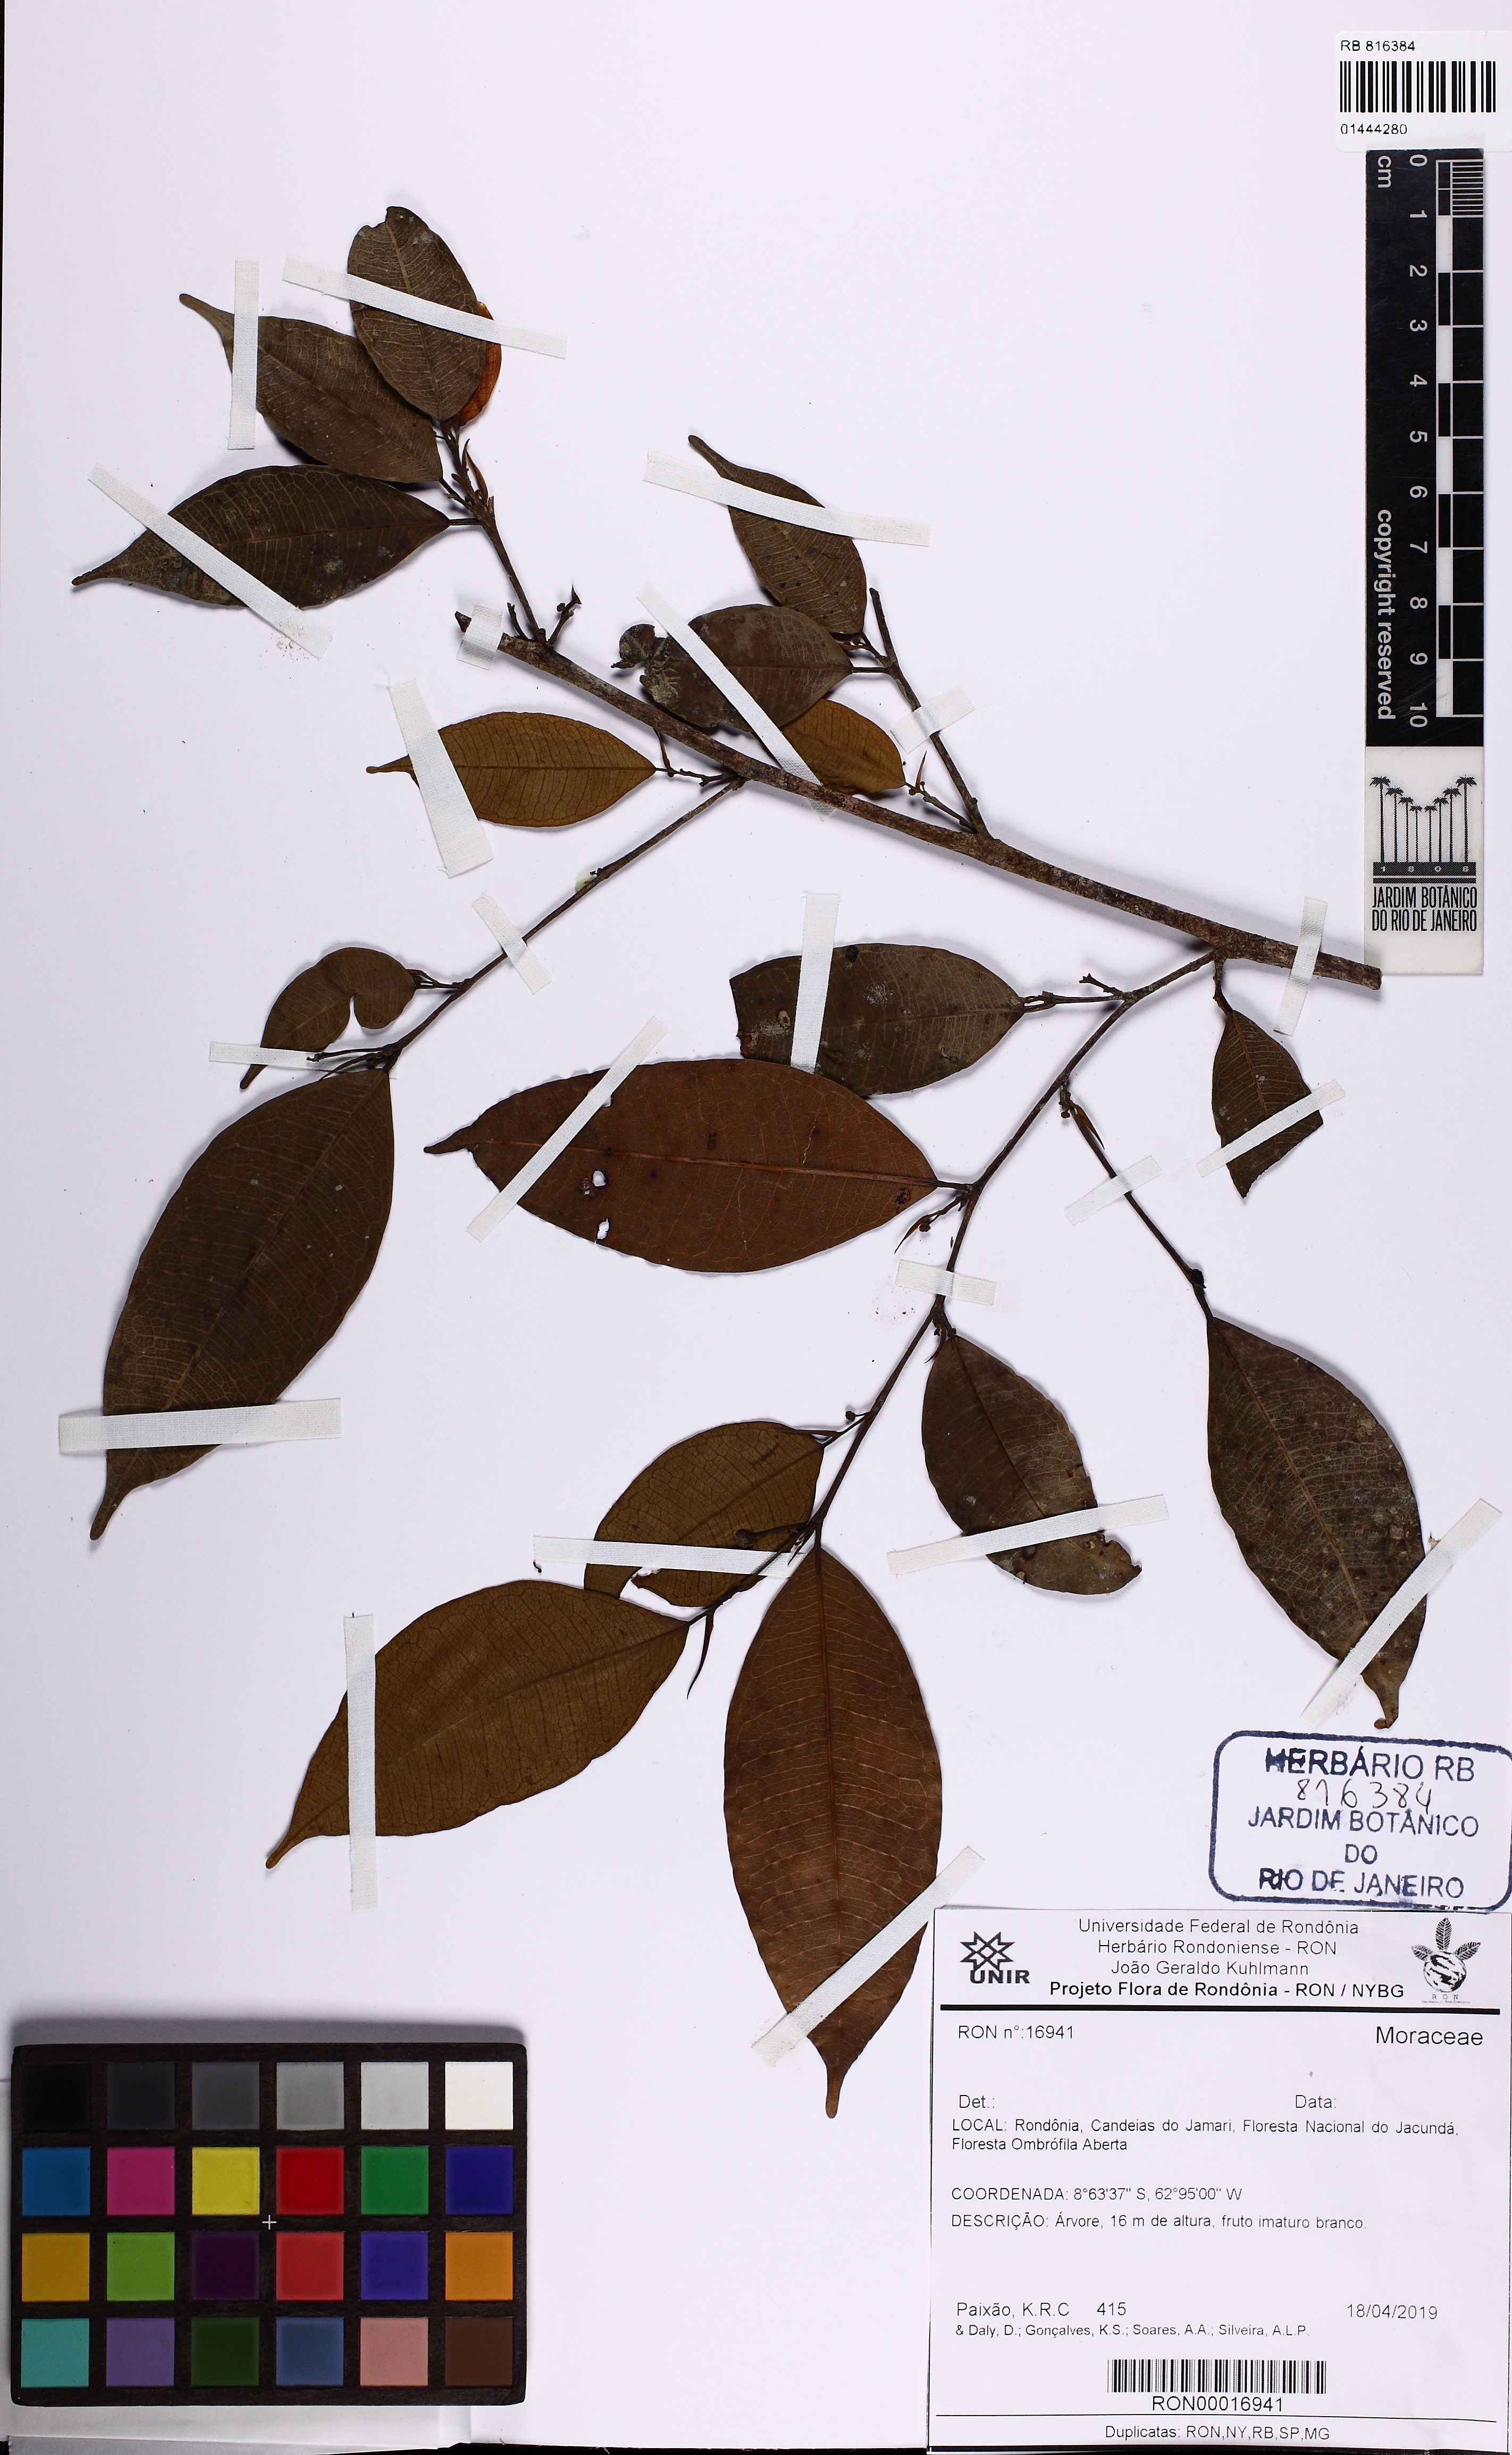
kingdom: Plantae
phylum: Tracheophyta
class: Magnoliopsida
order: Rosales
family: Moraceae
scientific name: Moraceae
